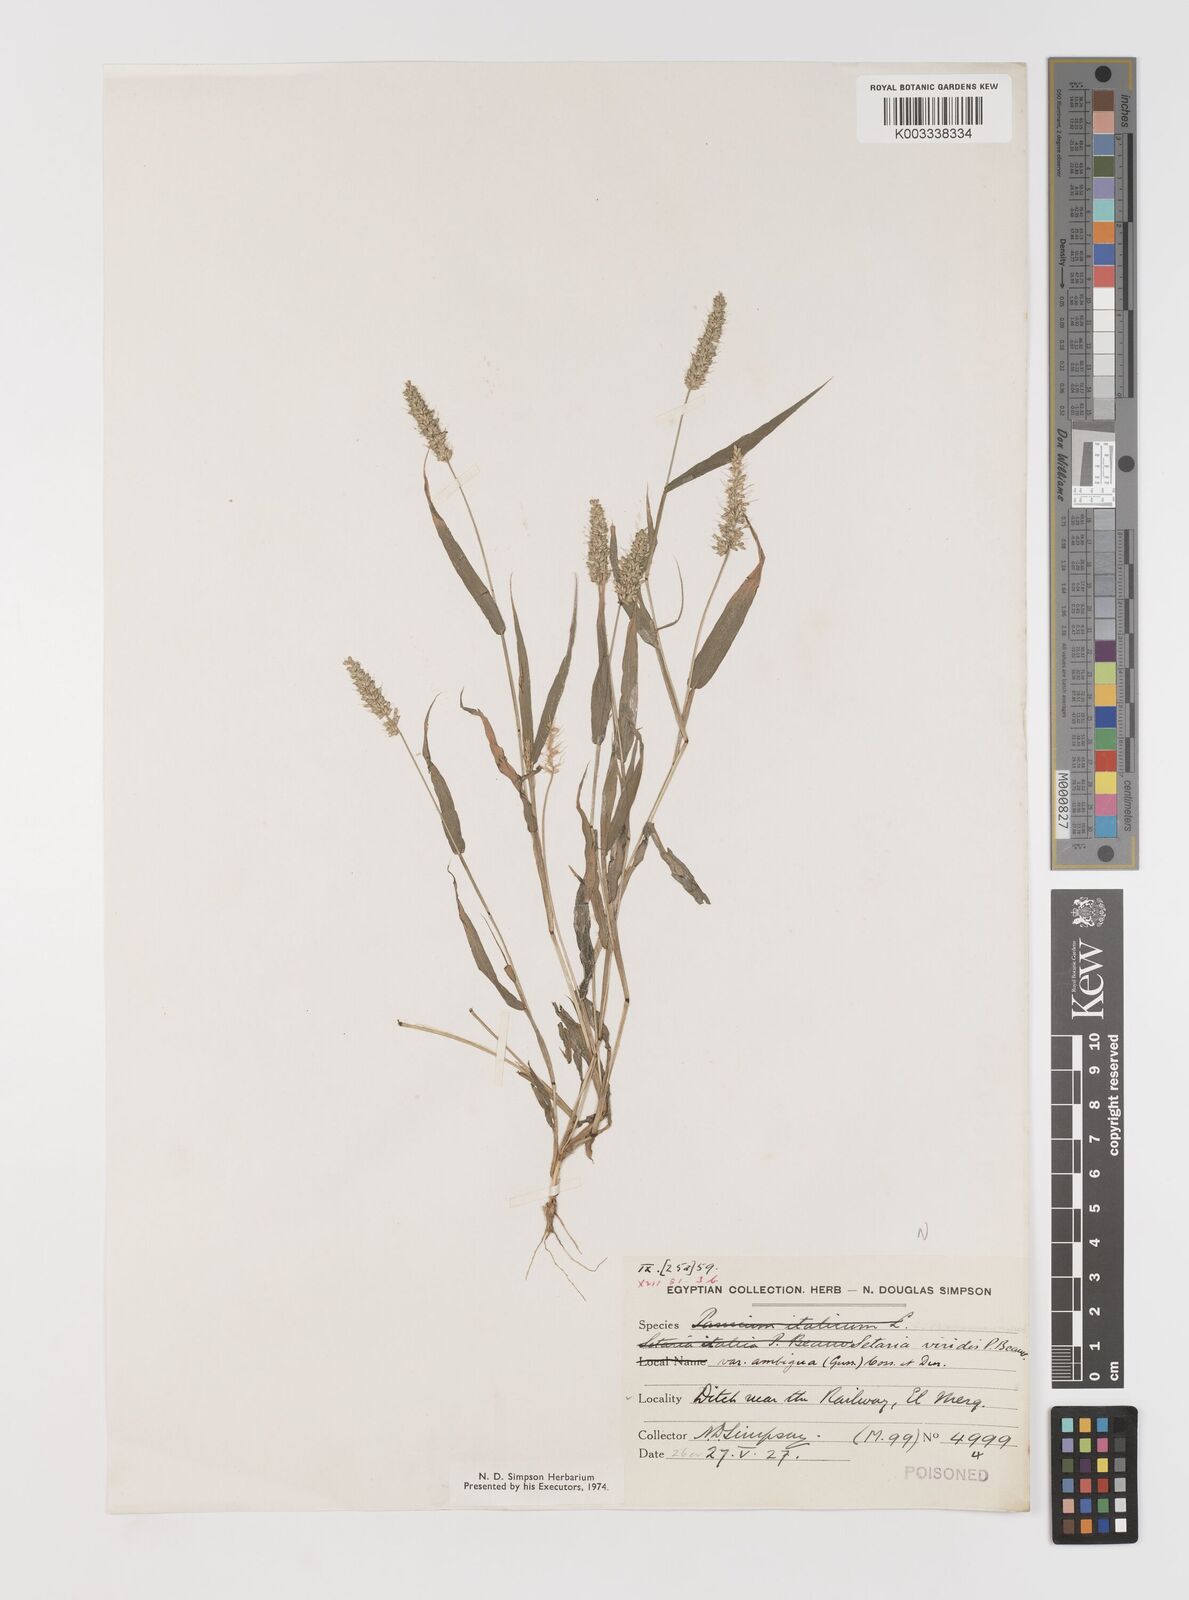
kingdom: Plantae
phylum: Tracheophyta
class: Liliopsida
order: Poales
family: Poaceae
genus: Setaria
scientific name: Setaria verticillata
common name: Hooked bristlegrass
